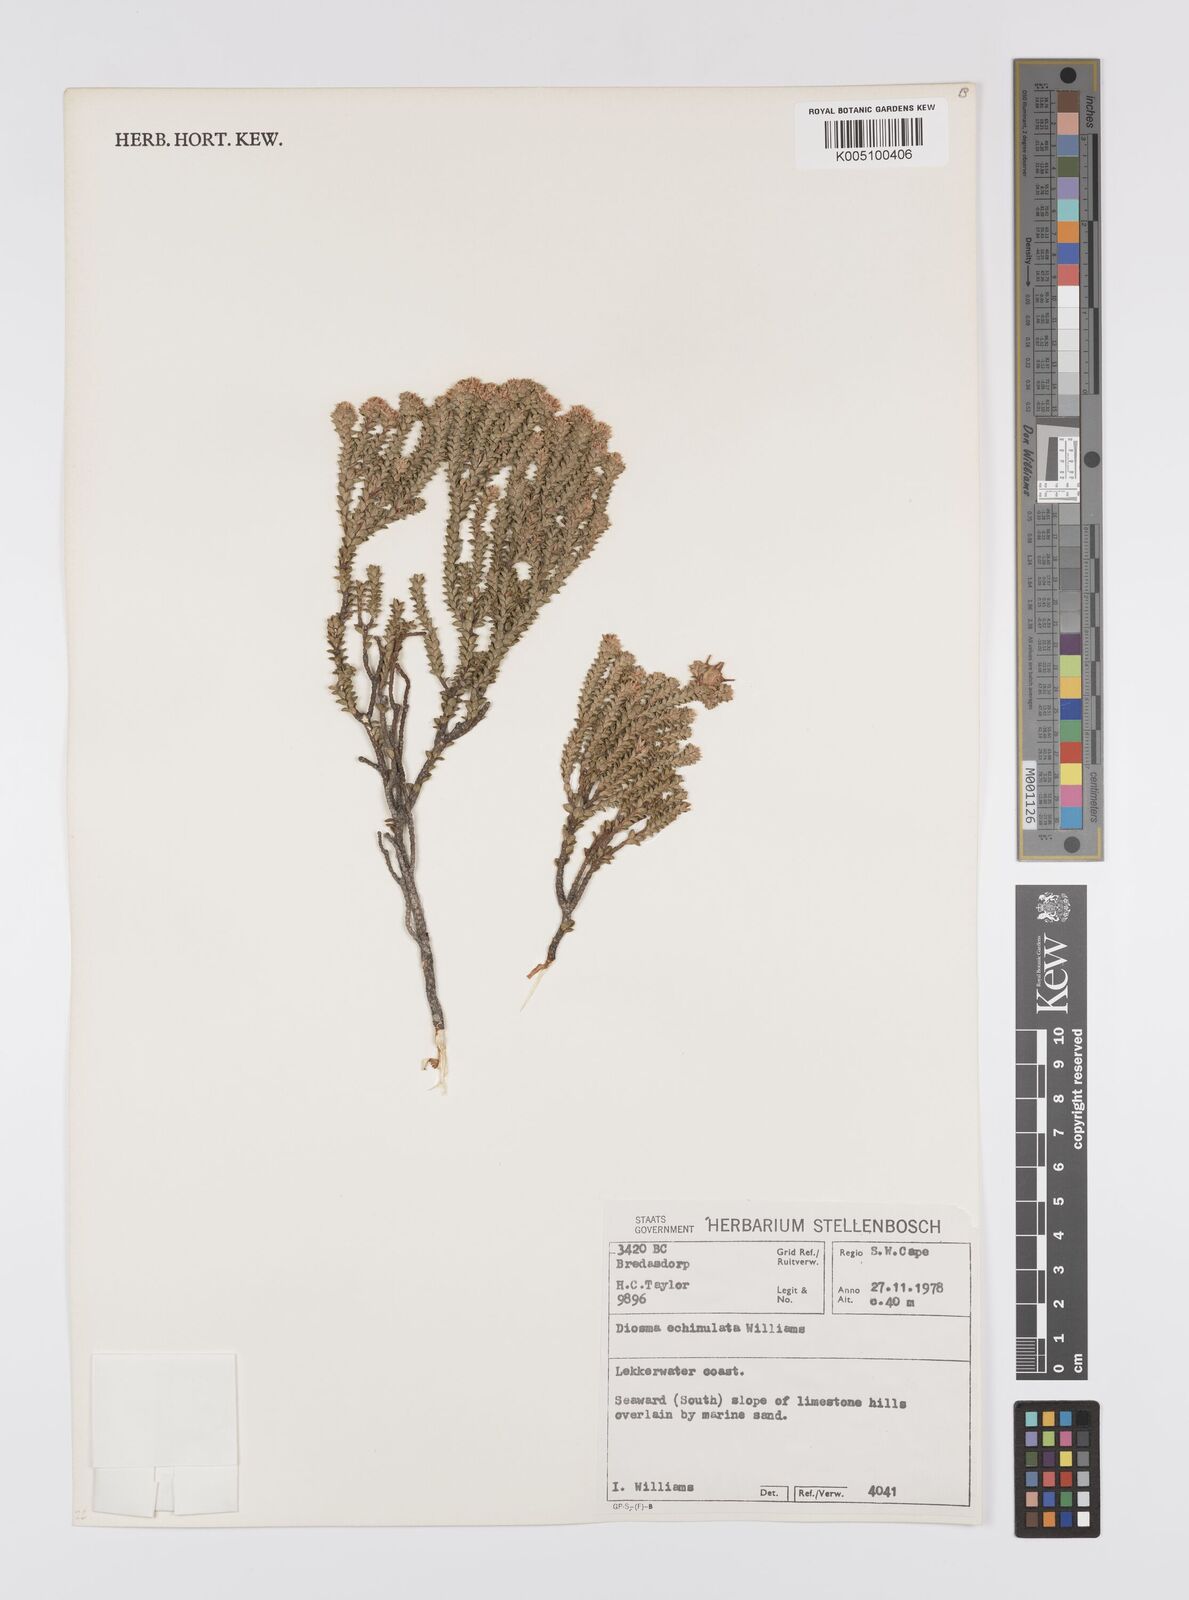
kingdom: Plantae
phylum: Tracheophyta
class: Magnoliopsida
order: Sapindales
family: Rutaceae
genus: Diosma
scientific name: Diosma echinulata
